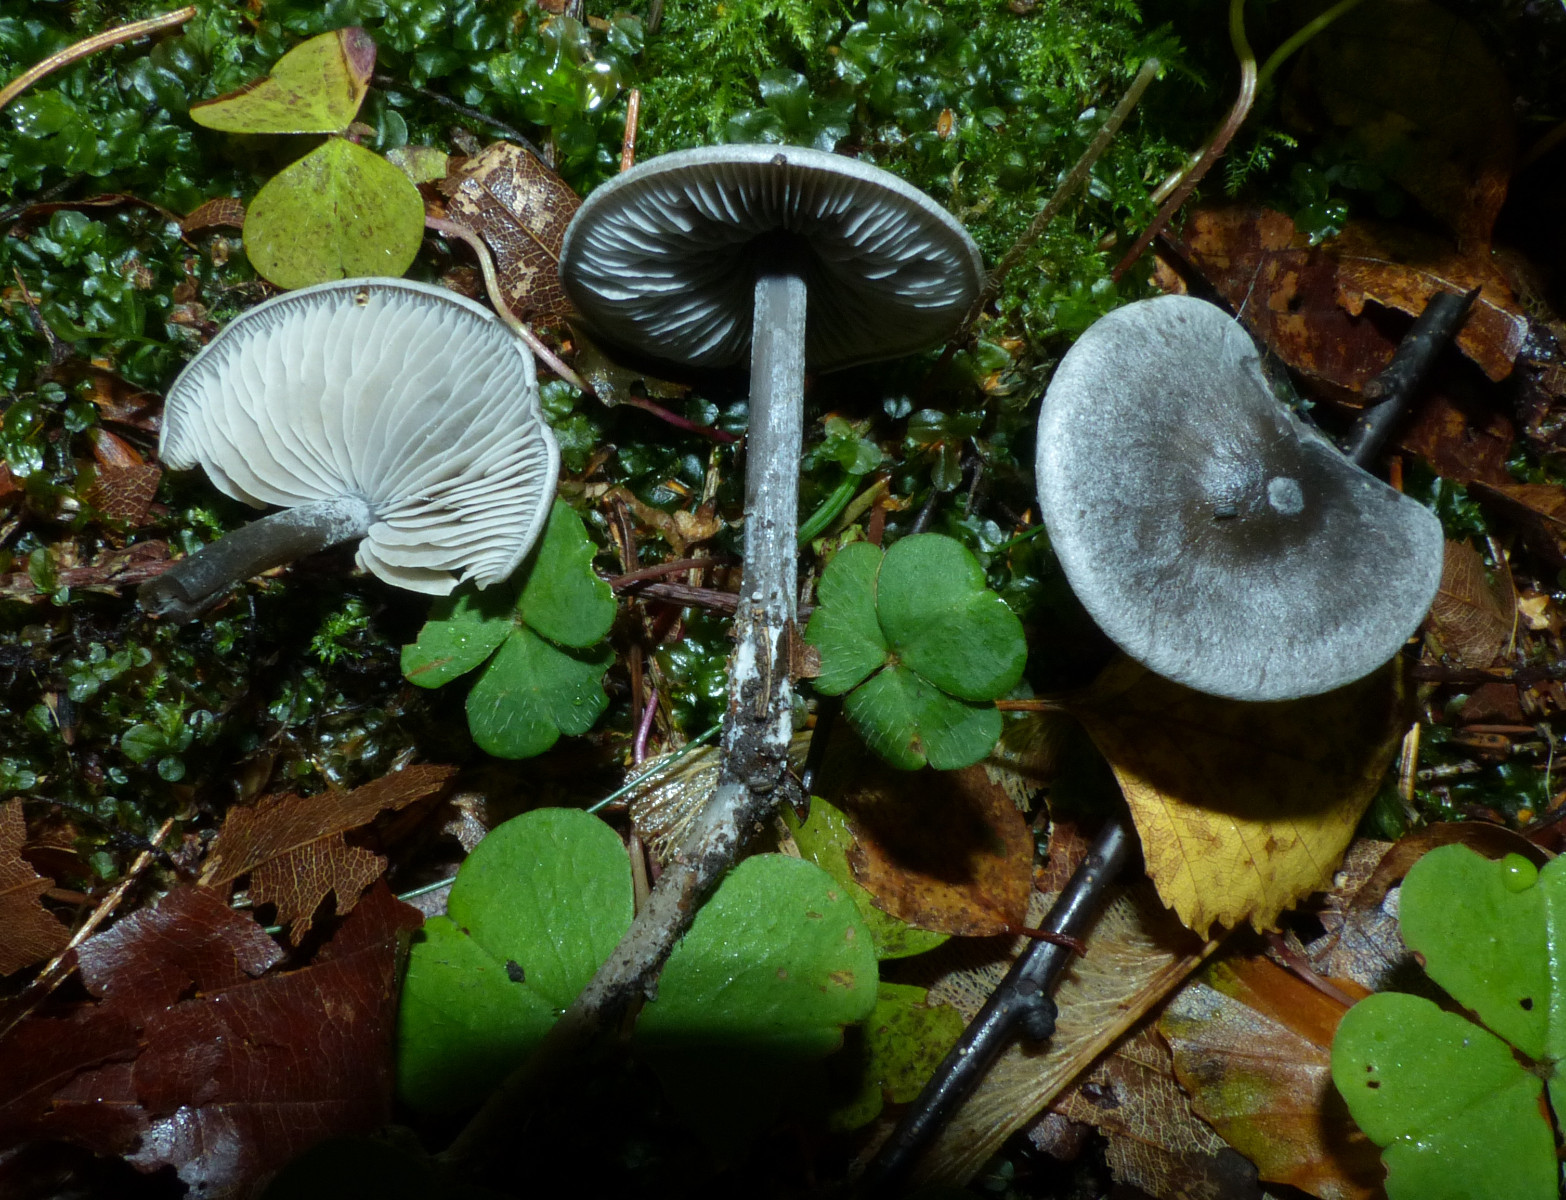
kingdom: Fungi
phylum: Basidiomycota
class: Agaricomycetes
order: Agaricales
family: Lyophyllaceae
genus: Tephrocybe
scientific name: Tephrocybe rancida
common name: mel-gråblad
